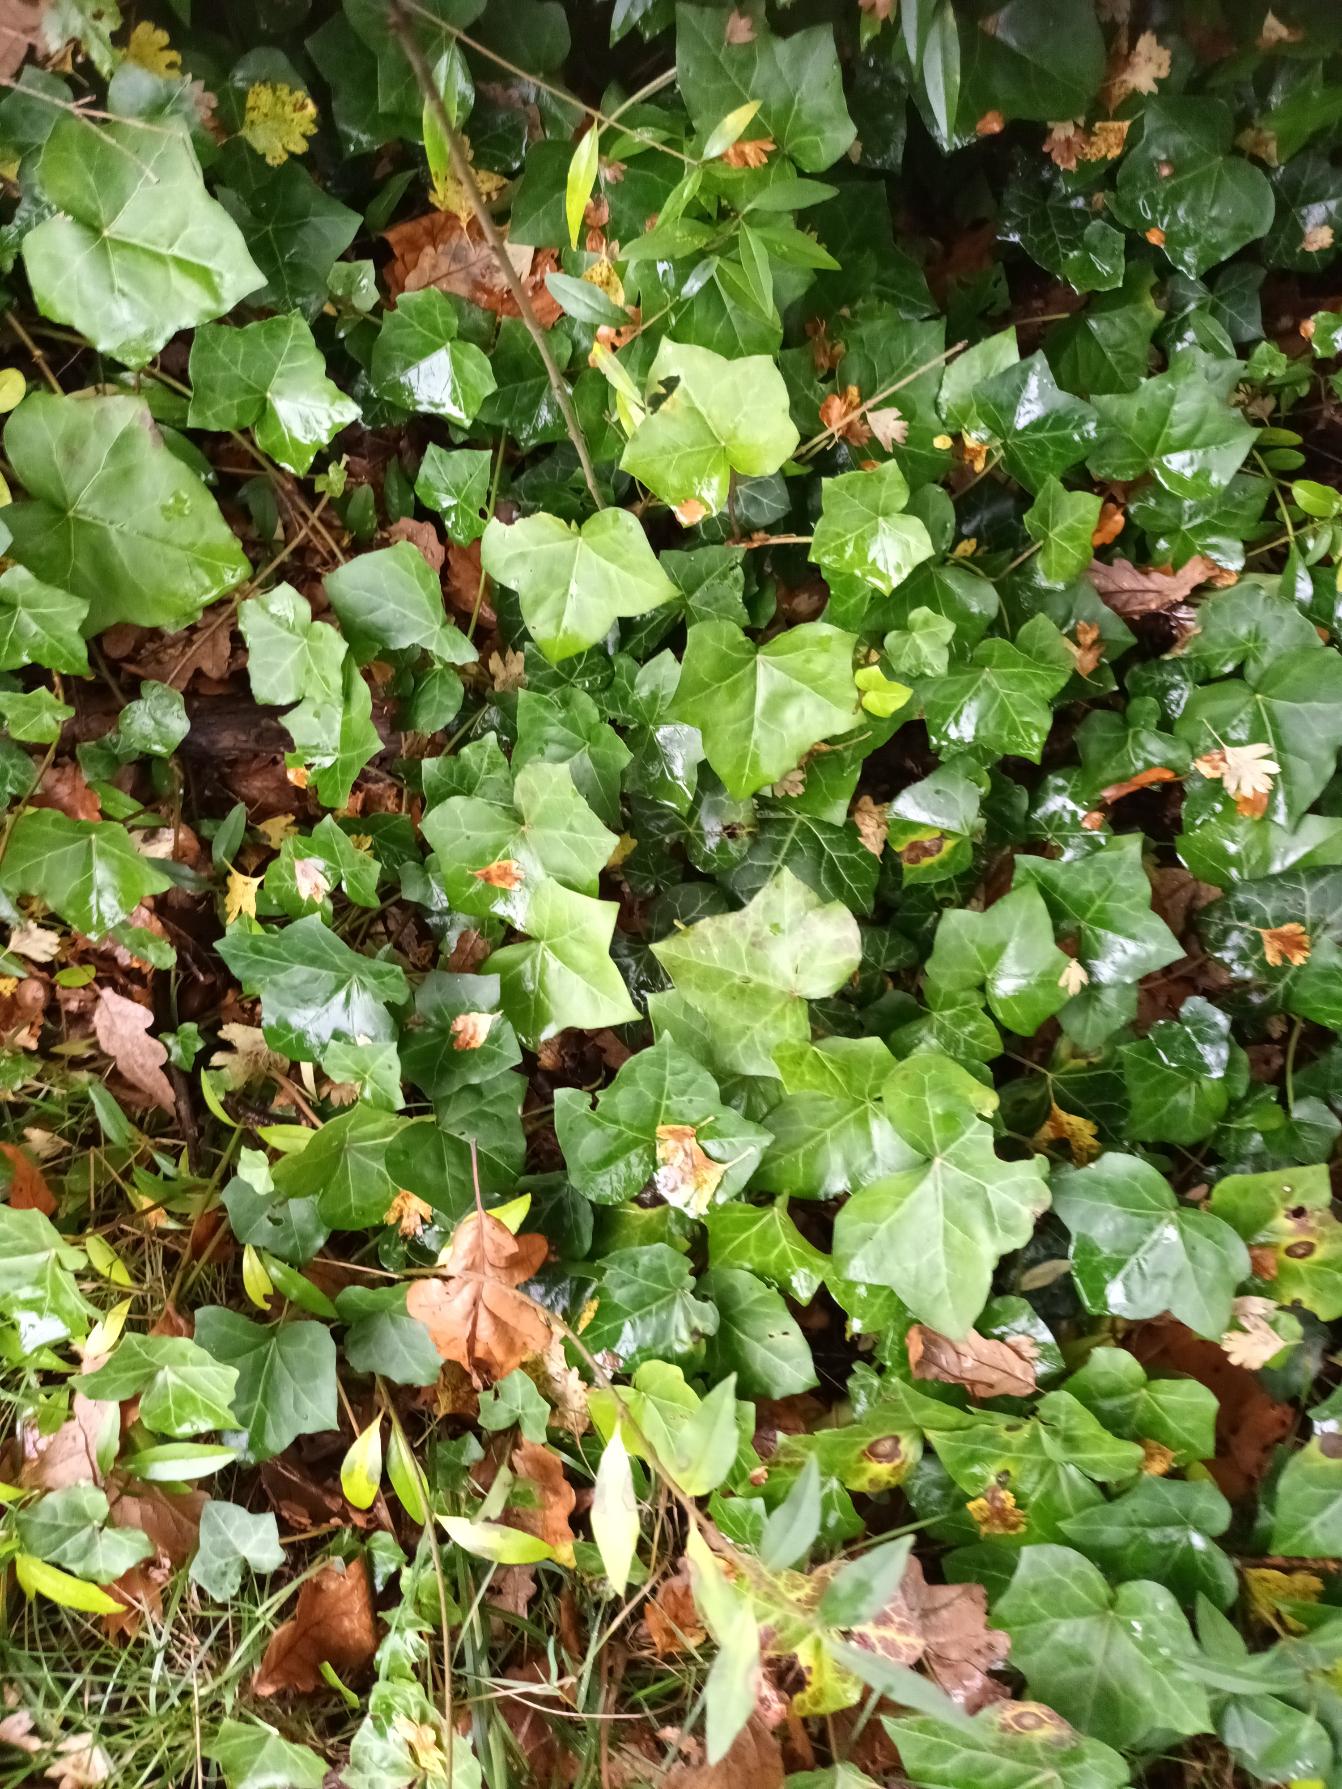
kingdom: Plantae
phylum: Tracheophyta
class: Magnoliopsida
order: Apiales
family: Araliaceae
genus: Hedera
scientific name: Hedera hibernica
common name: Irsk vedbend
